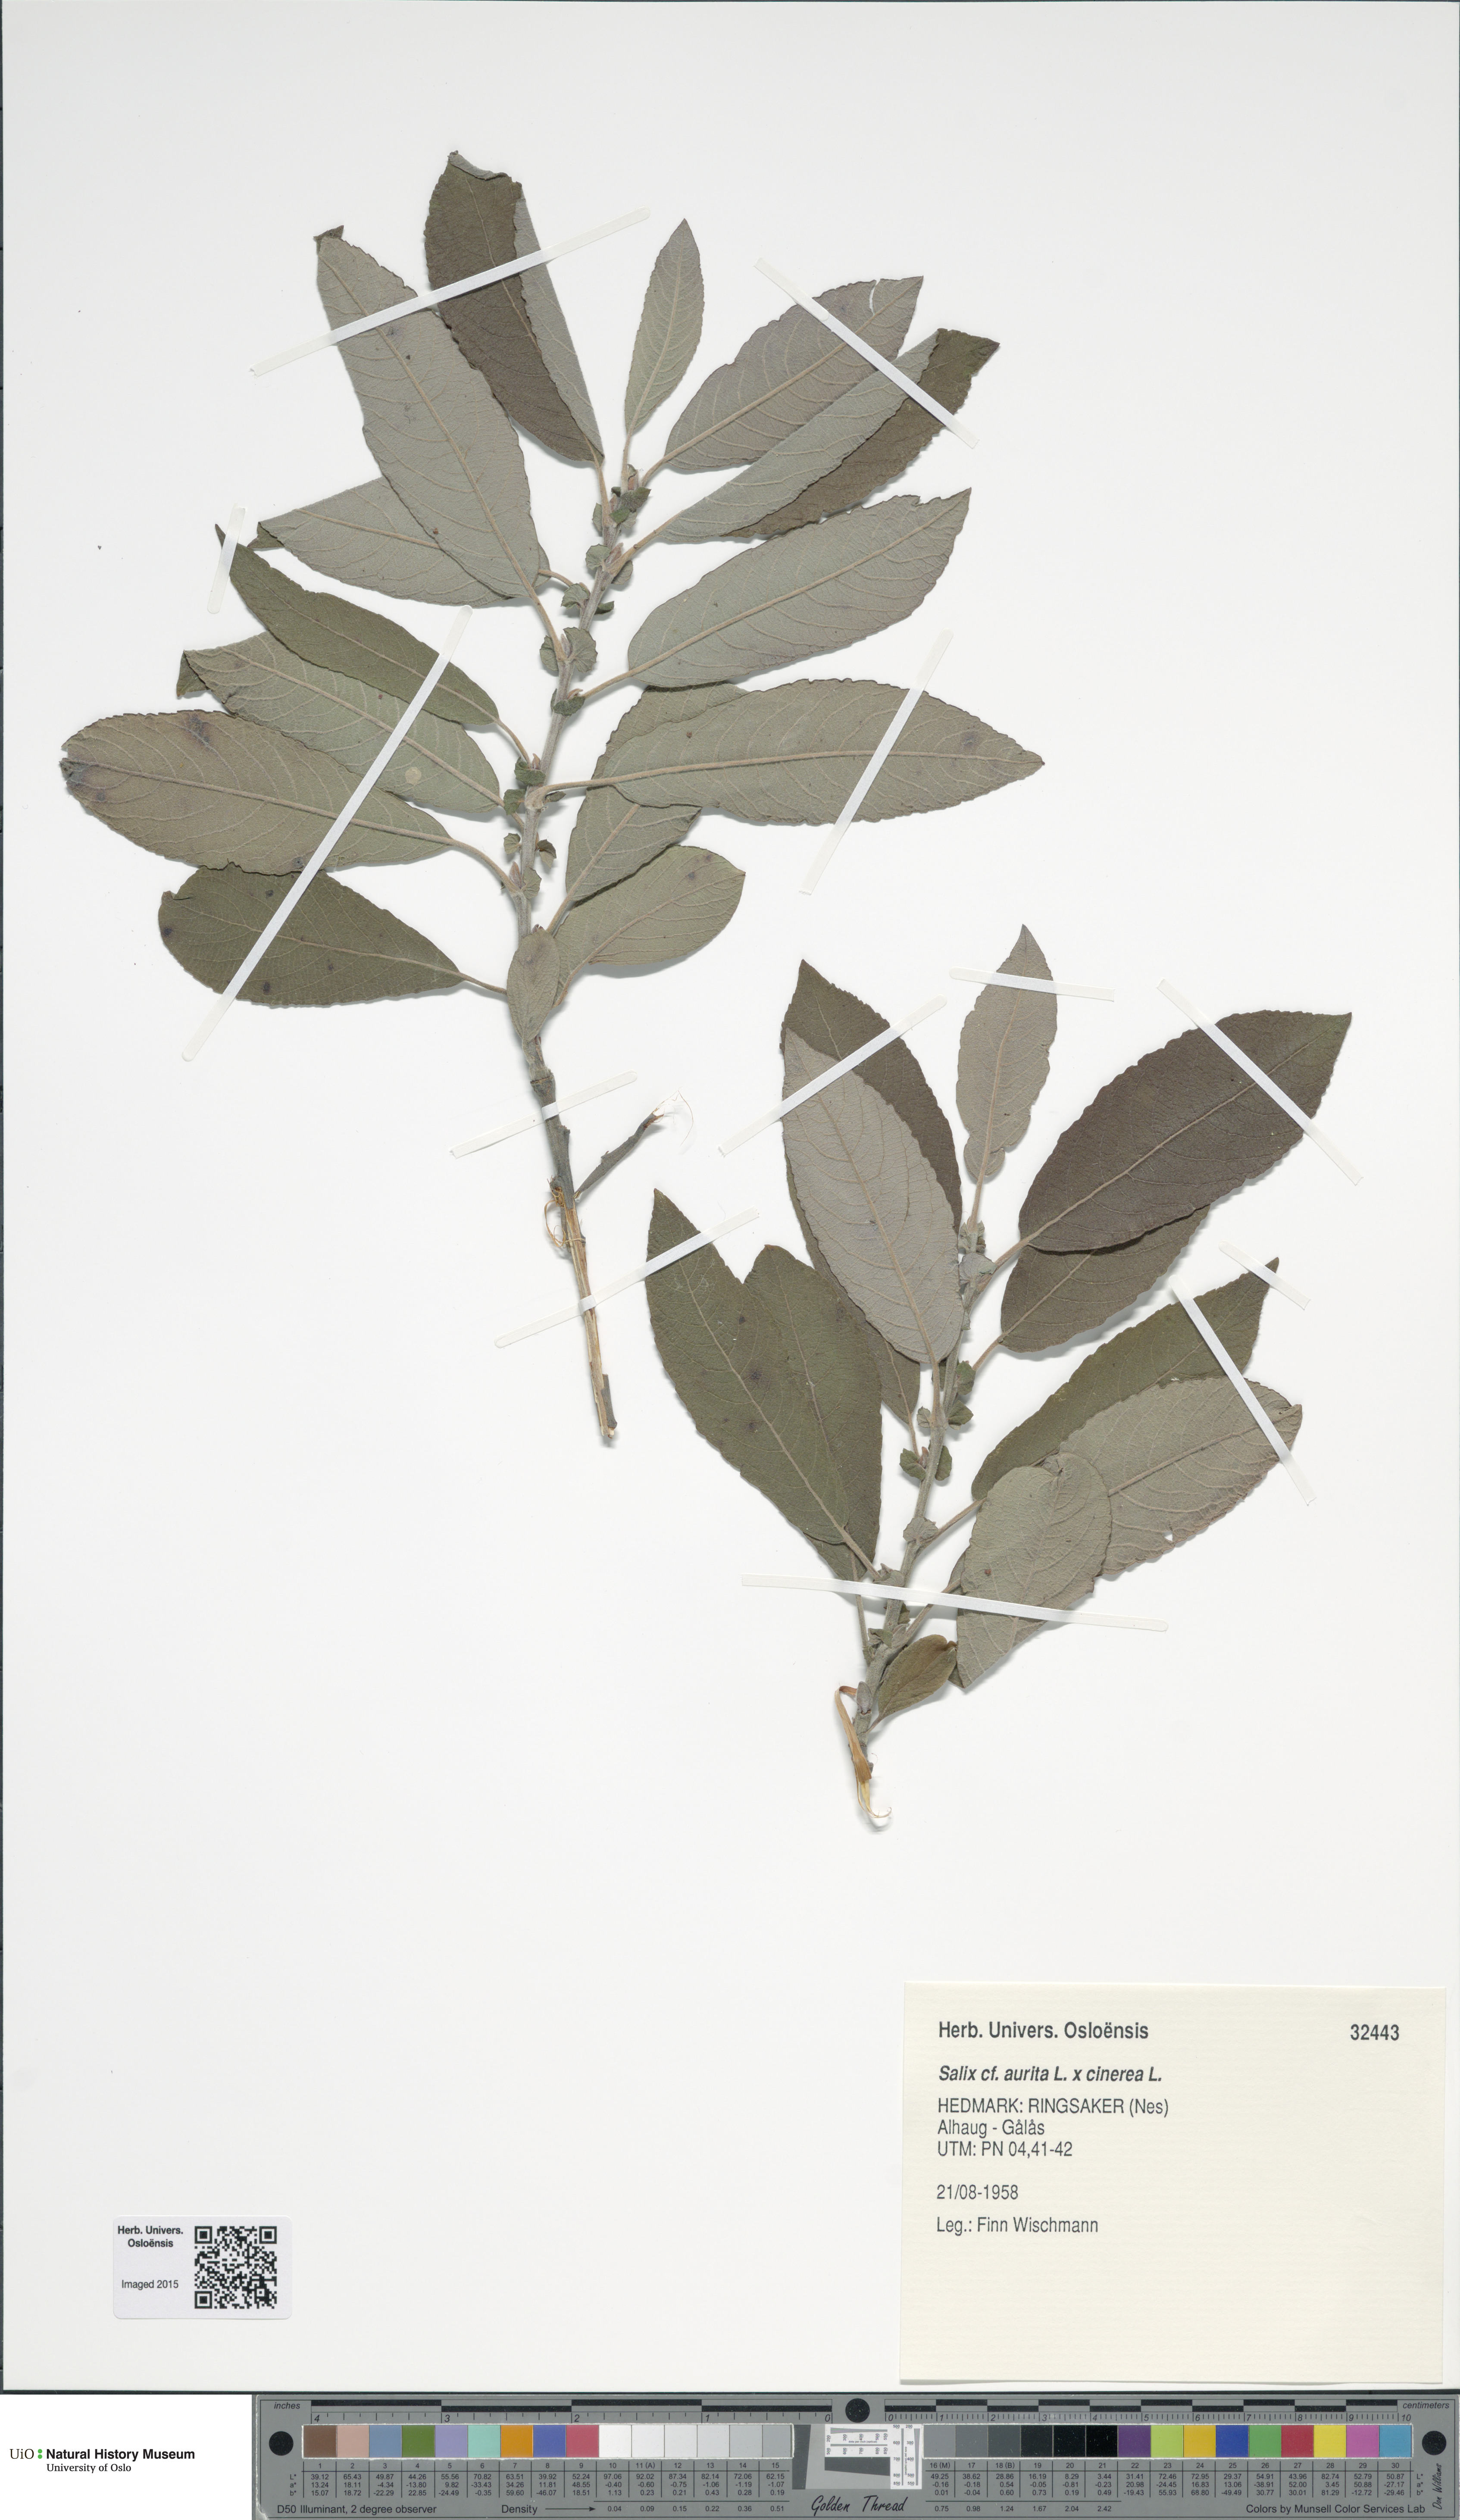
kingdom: Plantae
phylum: Tracheophyta
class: Magnoliopsida
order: Malpighiales
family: Salicaceae
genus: Salix
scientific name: Salix
